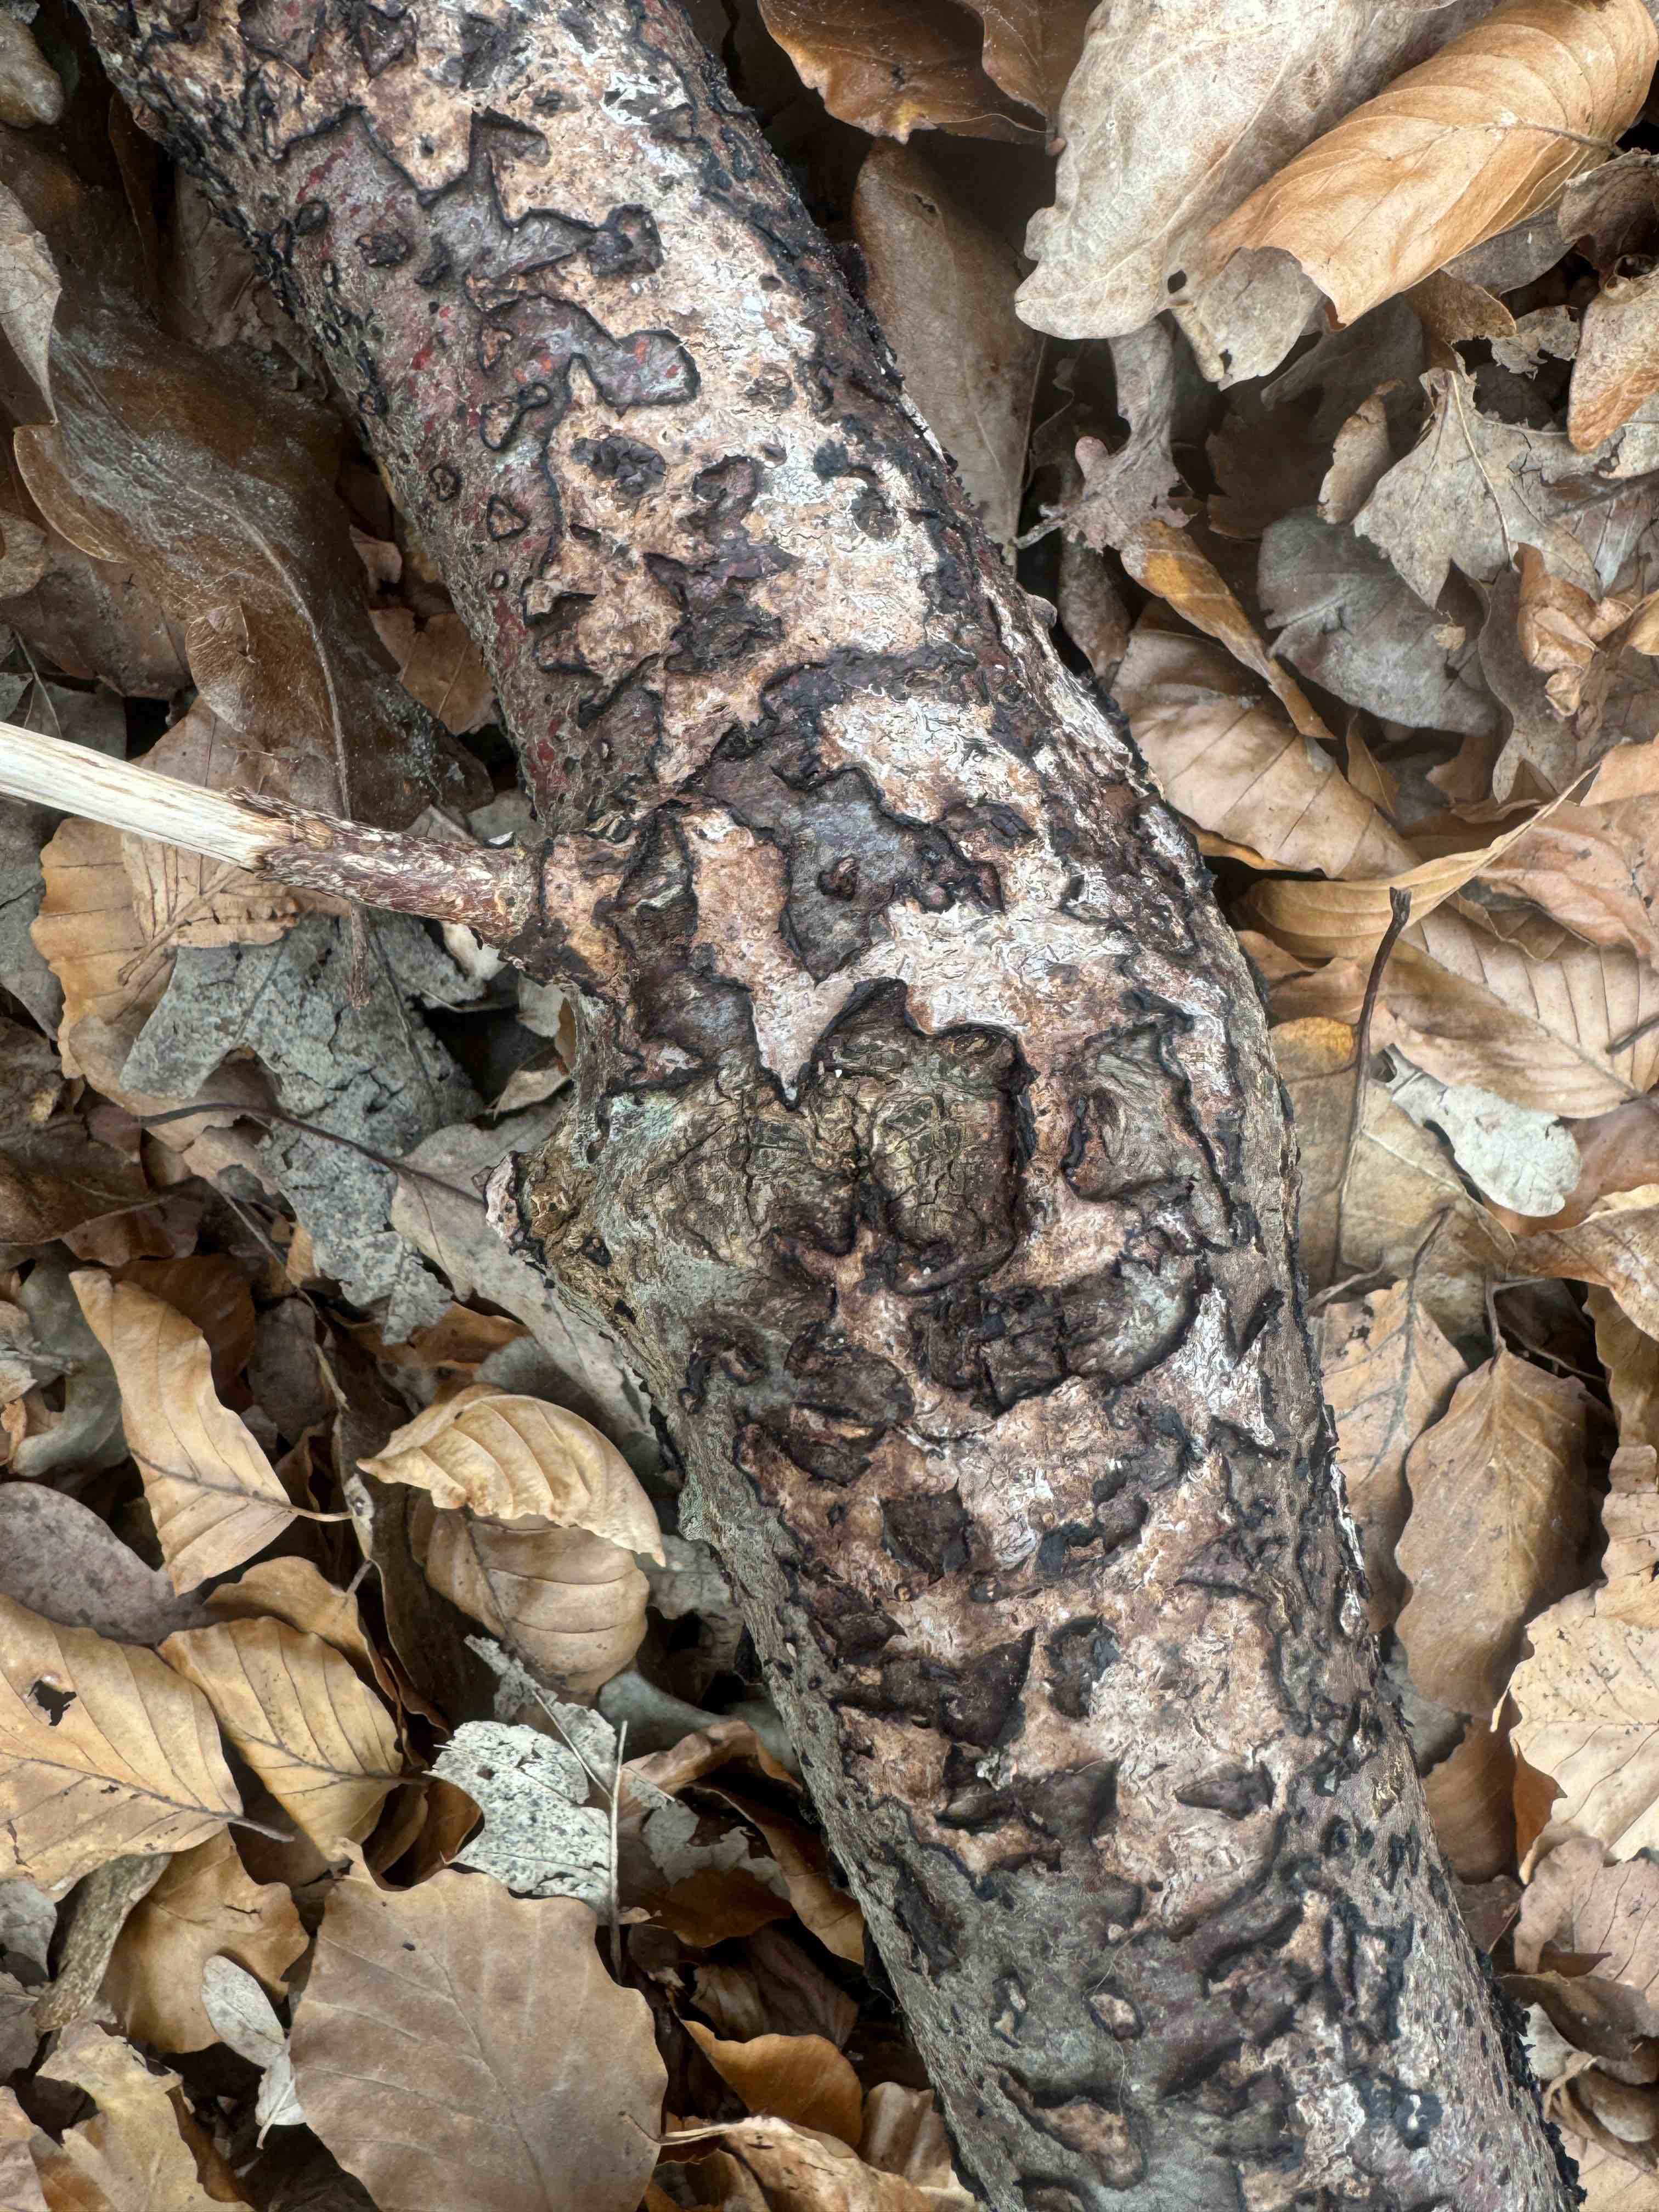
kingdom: Fungi
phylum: Basidiomycota
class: Agaricomycetes
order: Russulales
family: Peniophoraceae
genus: Peniophora
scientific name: Peniophora quercina
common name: ege-voksskind
